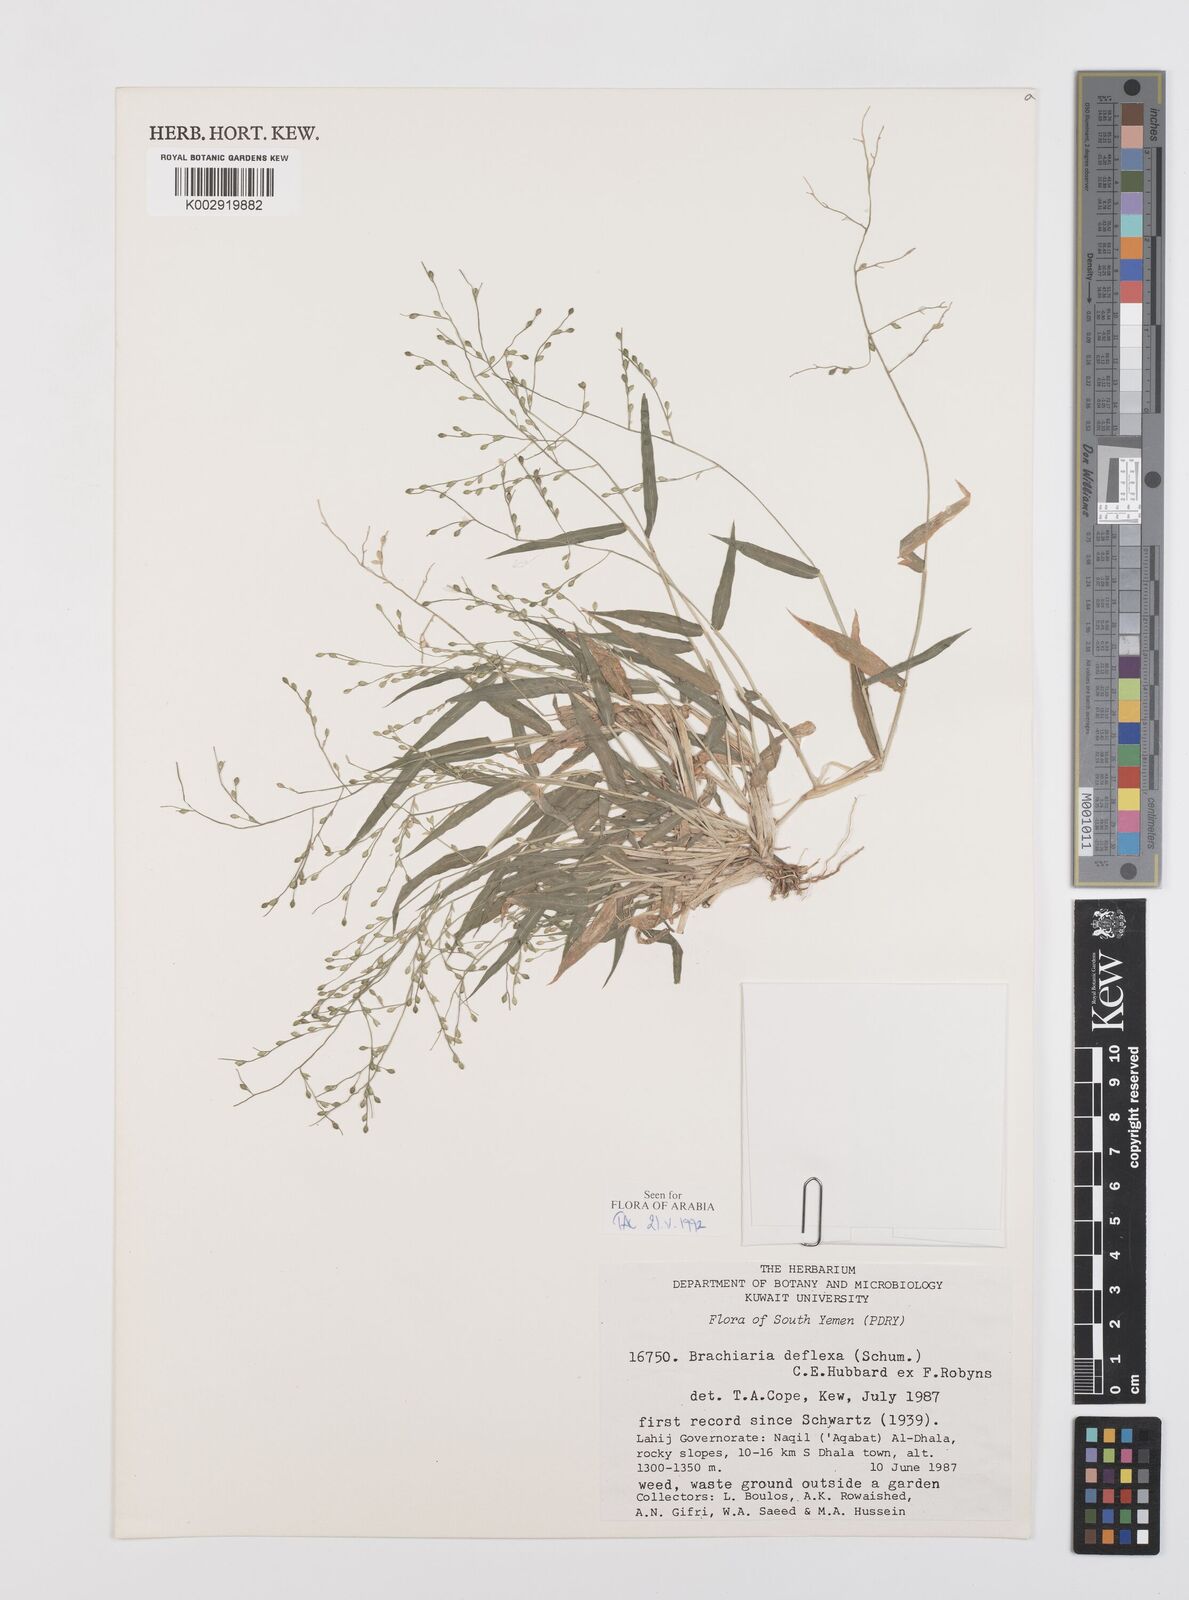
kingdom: Plantae
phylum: Tracheophyta
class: Liliopsida
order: Poales
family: Poaceae
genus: Urochloa
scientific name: Urochloa deflexa
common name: Guinea millet
